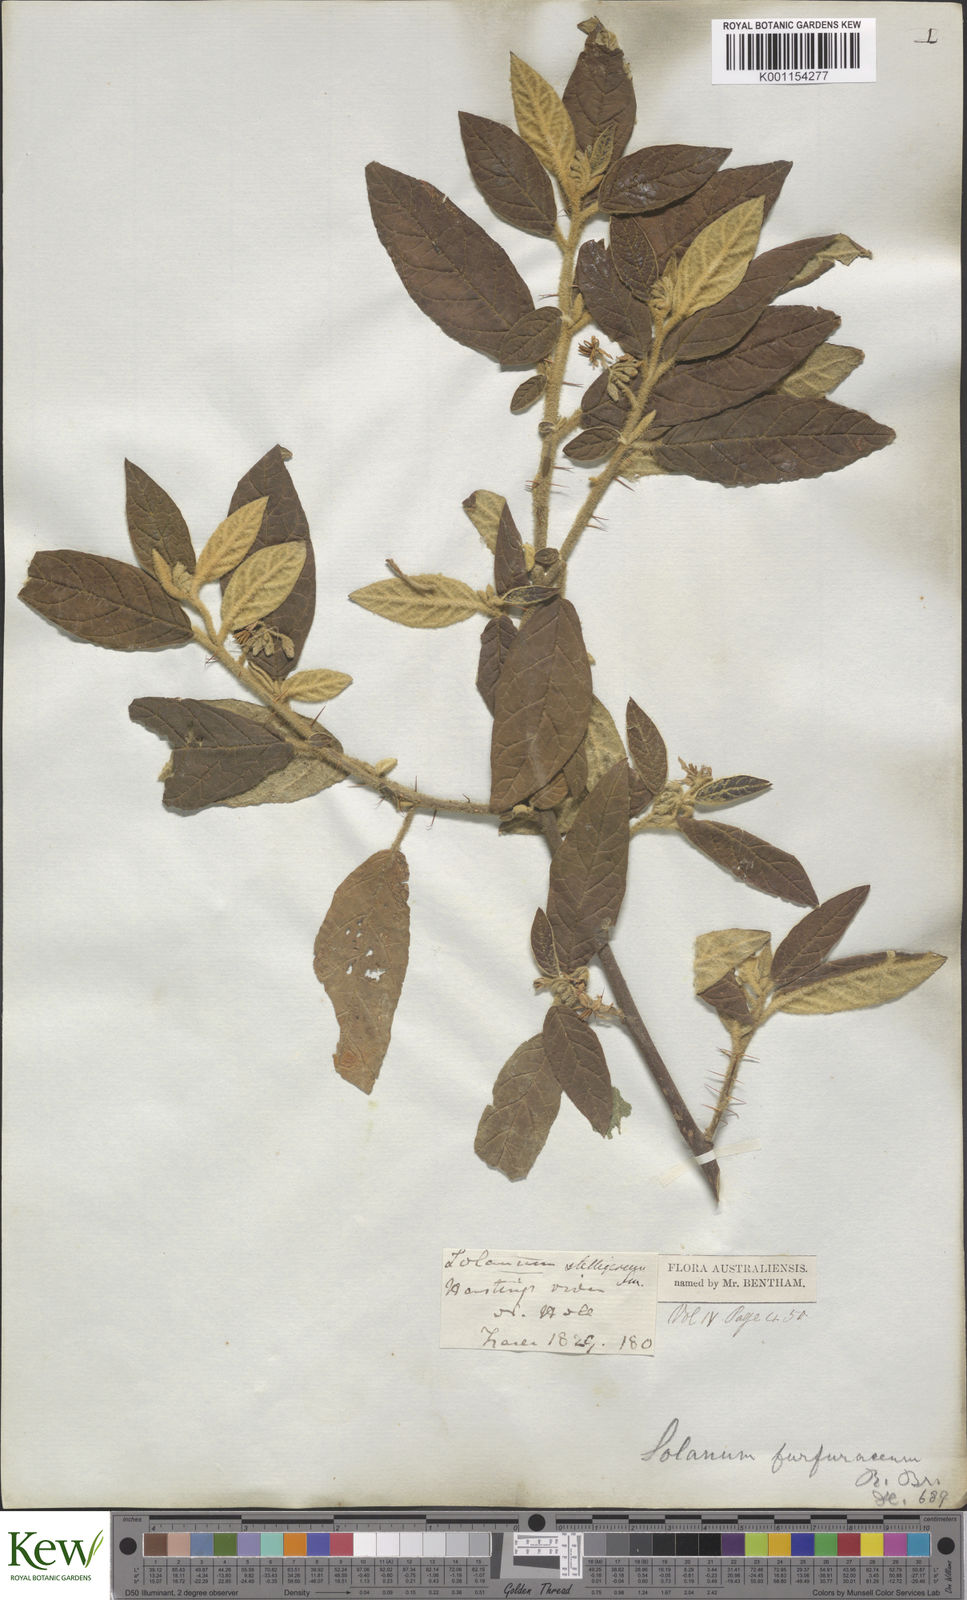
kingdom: Plantae
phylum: Tracheophyta
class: Magnoliopsida
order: Solanales
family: Solanaceae
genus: Solanum
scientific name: Solanum stelligerum
